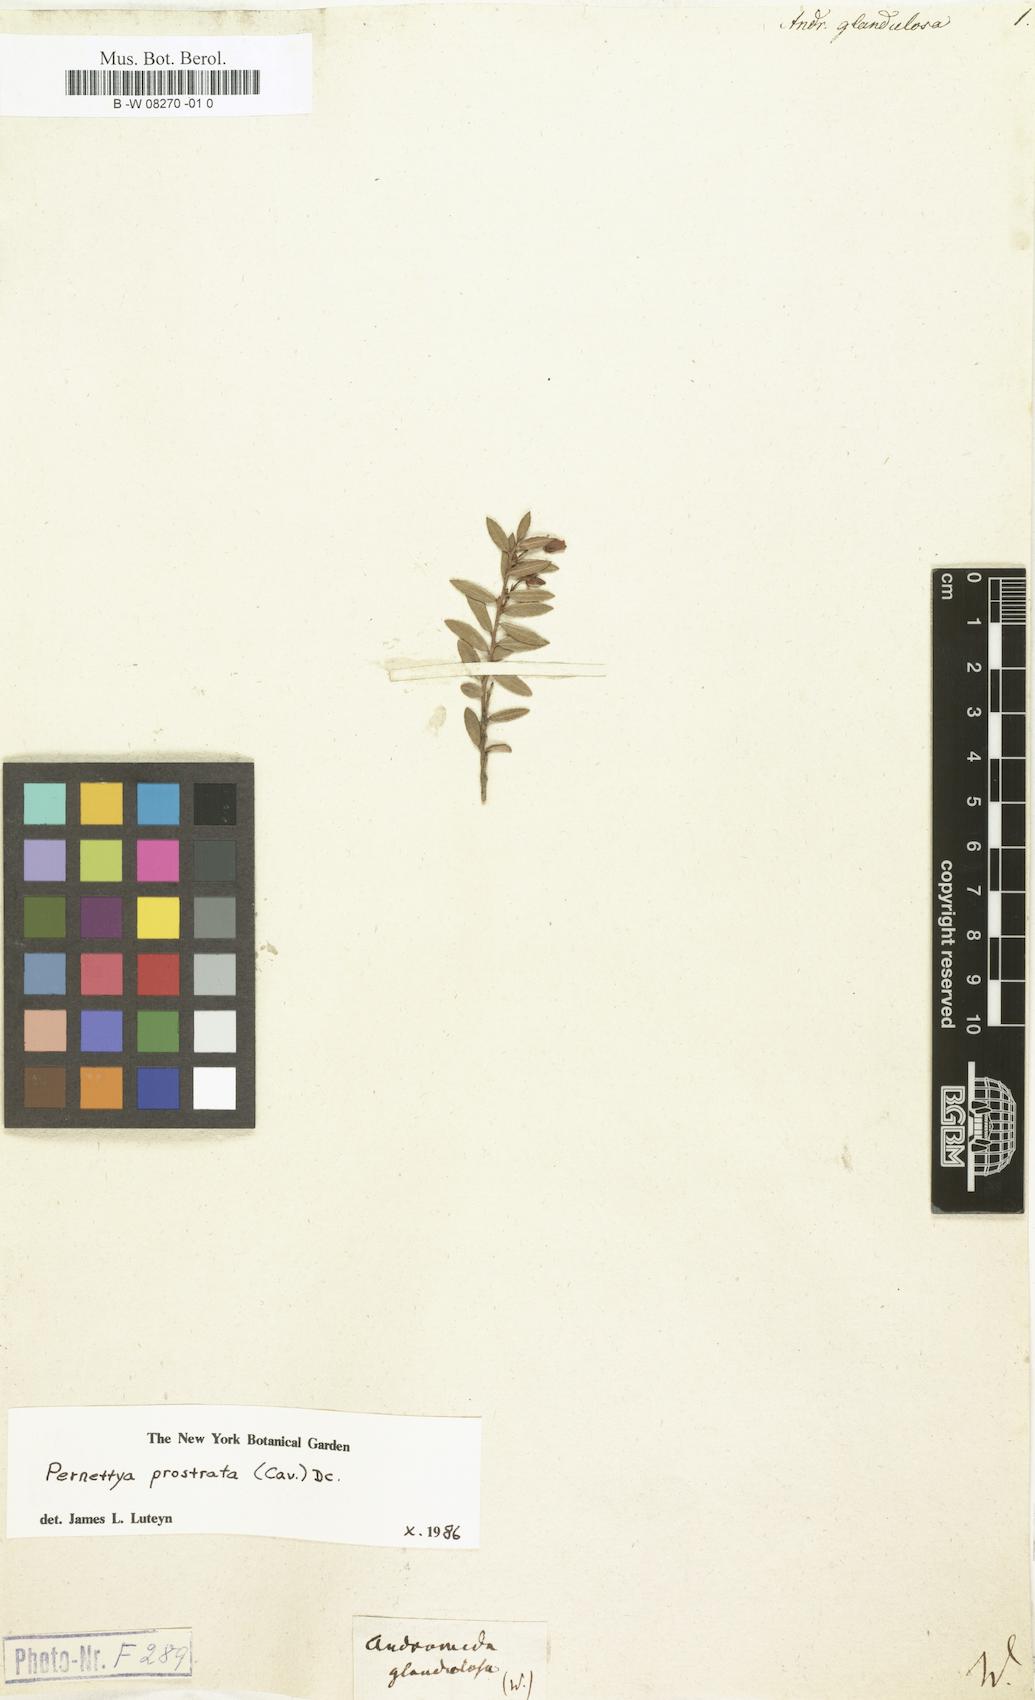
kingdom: Plantae
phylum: Tracheophyta
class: Magnoliopsida
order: Ericales
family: Ericaceae
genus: Lyonia
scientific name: Lyonia glandulosa
